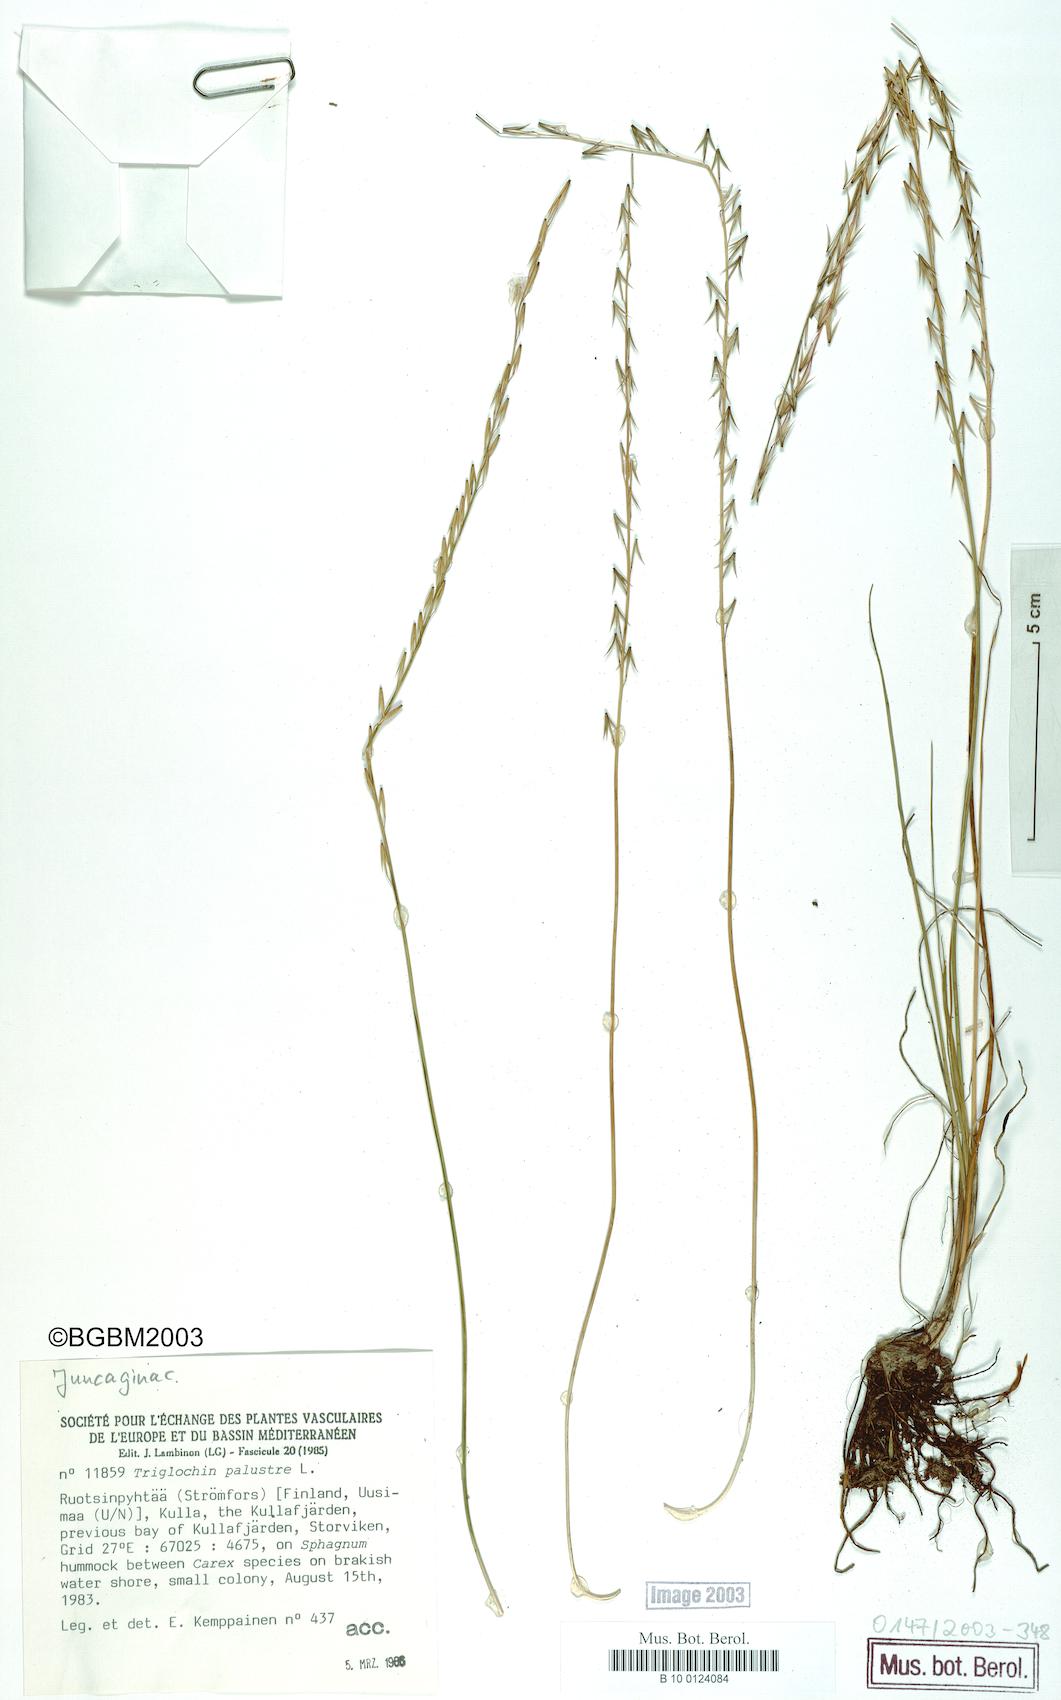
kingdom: Plantae
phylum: Tracheophyta
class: Liliopsida
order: Alismatales
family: Juncaginaceae
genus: Triglochin
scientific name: Triglochin palustris
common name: Marsh arrowgrass
